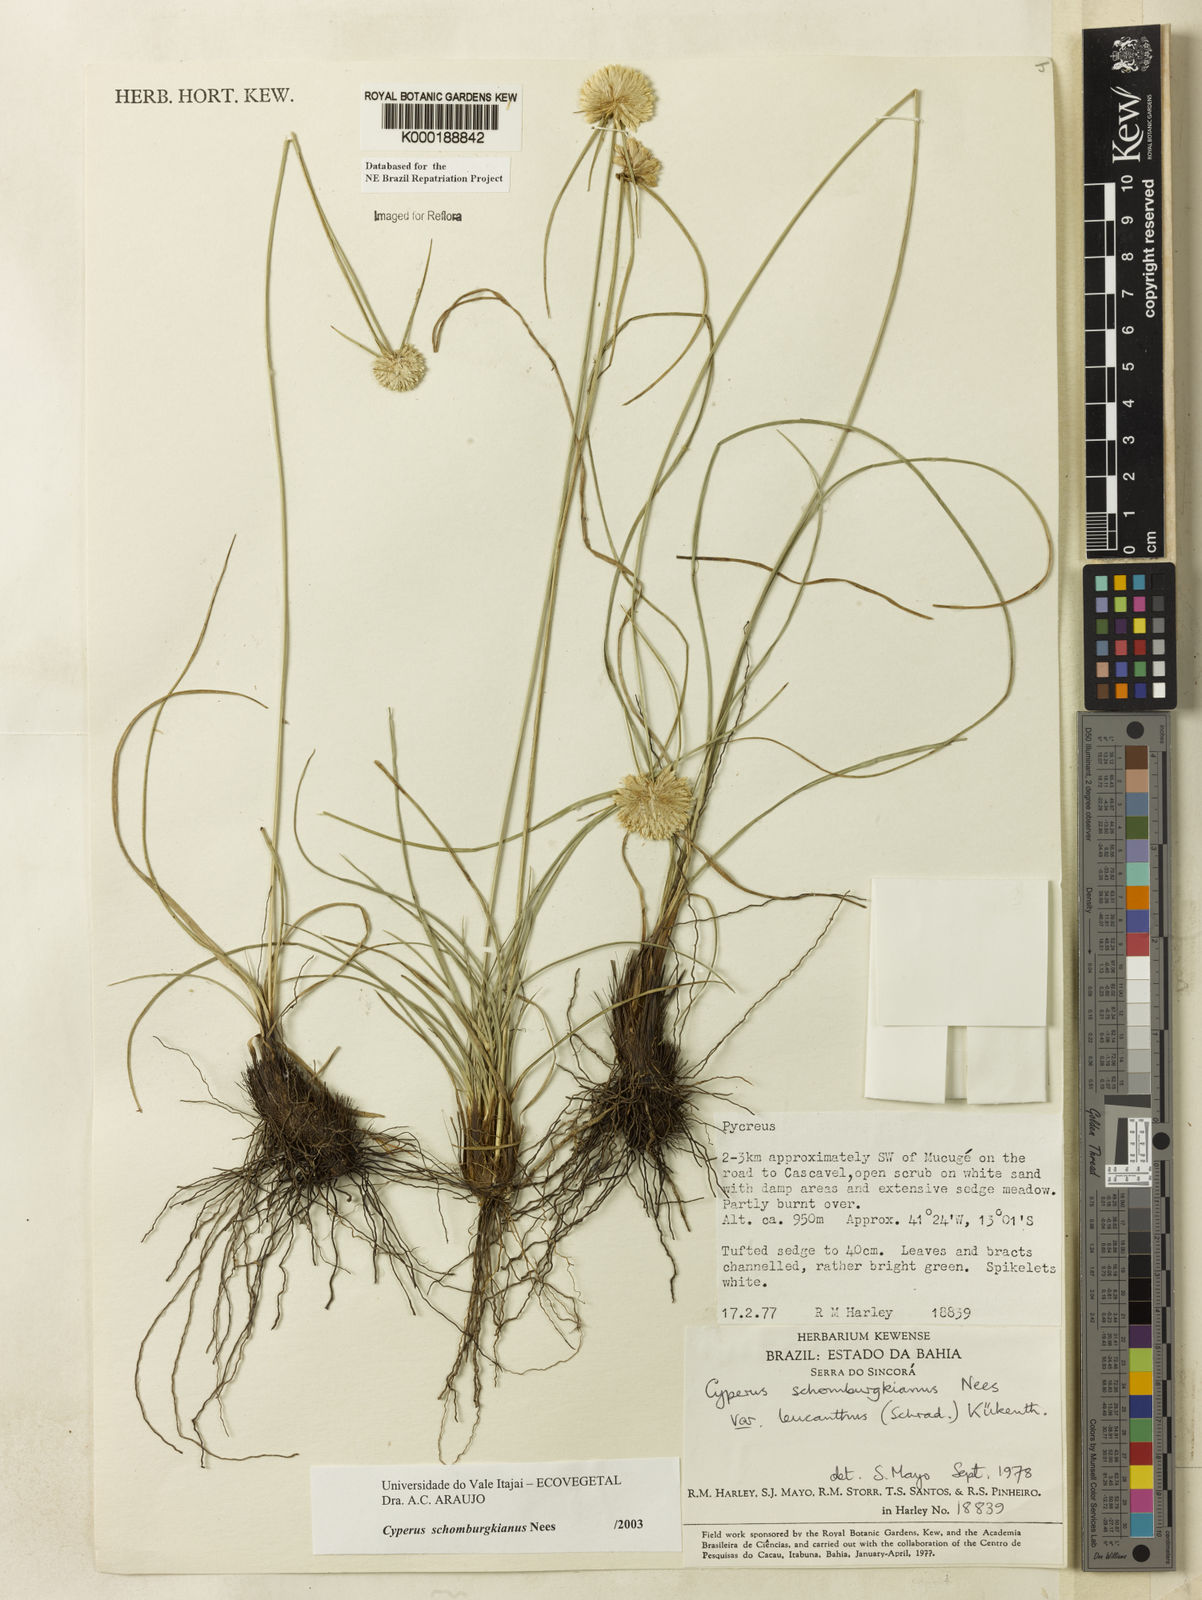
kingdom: Plantae
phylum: Tracheophyta
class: Liliopsida
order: Poales
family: Cyperaceae
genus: Cyperus
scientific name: Cyperus schomburgkianus
